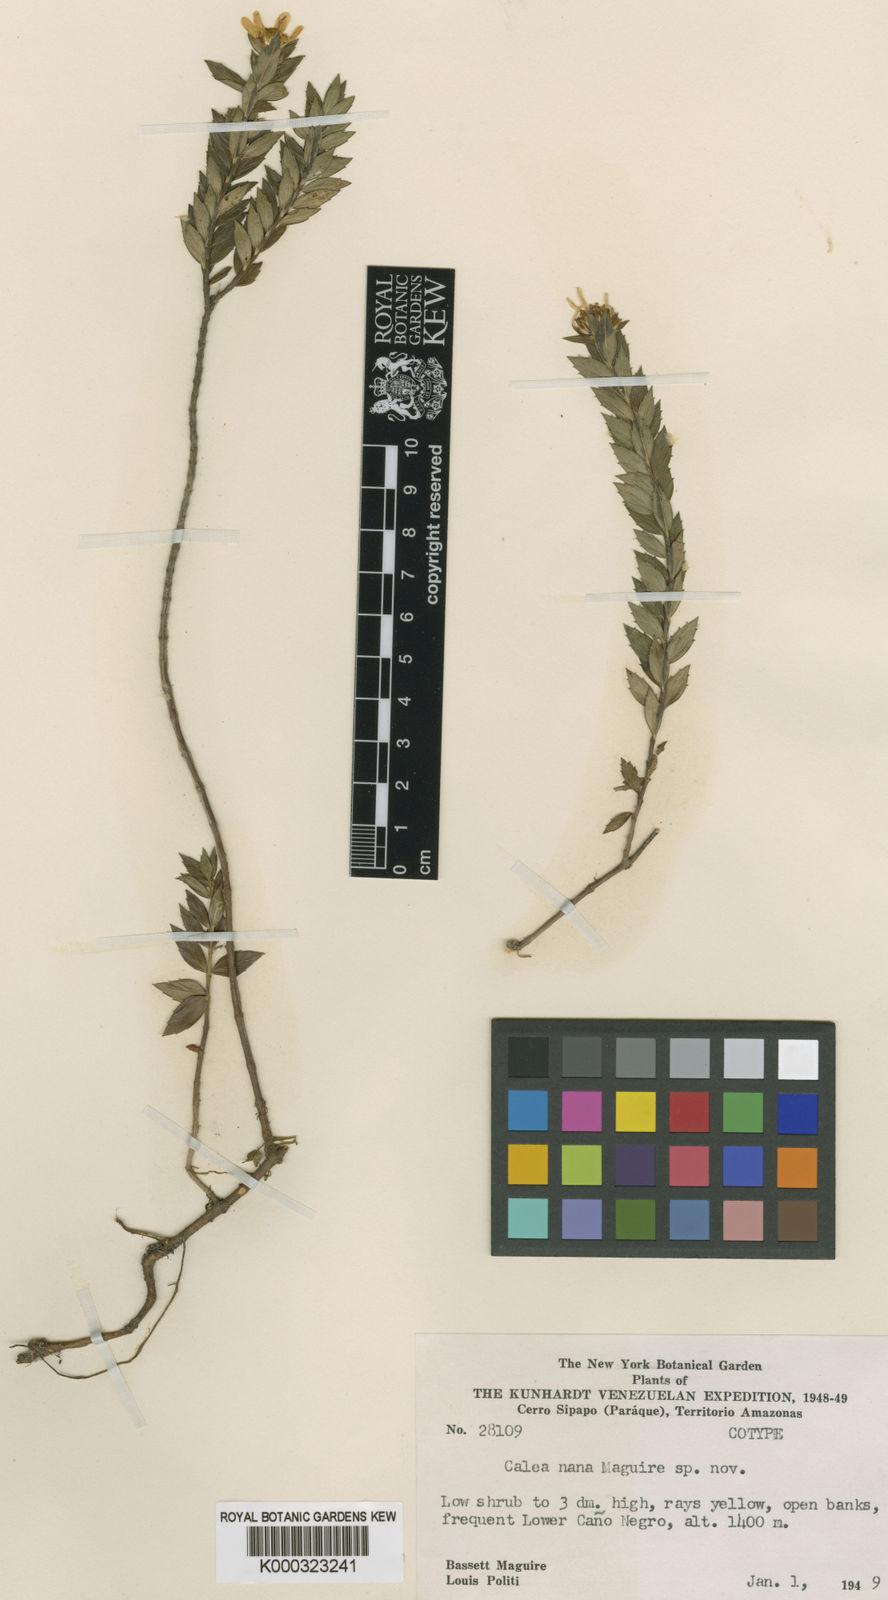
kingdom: Plantae
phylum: Tracheophyta
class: Magnoliopsida
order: Asterales
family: Asteraceae
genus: Calea
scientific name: Calea nana
